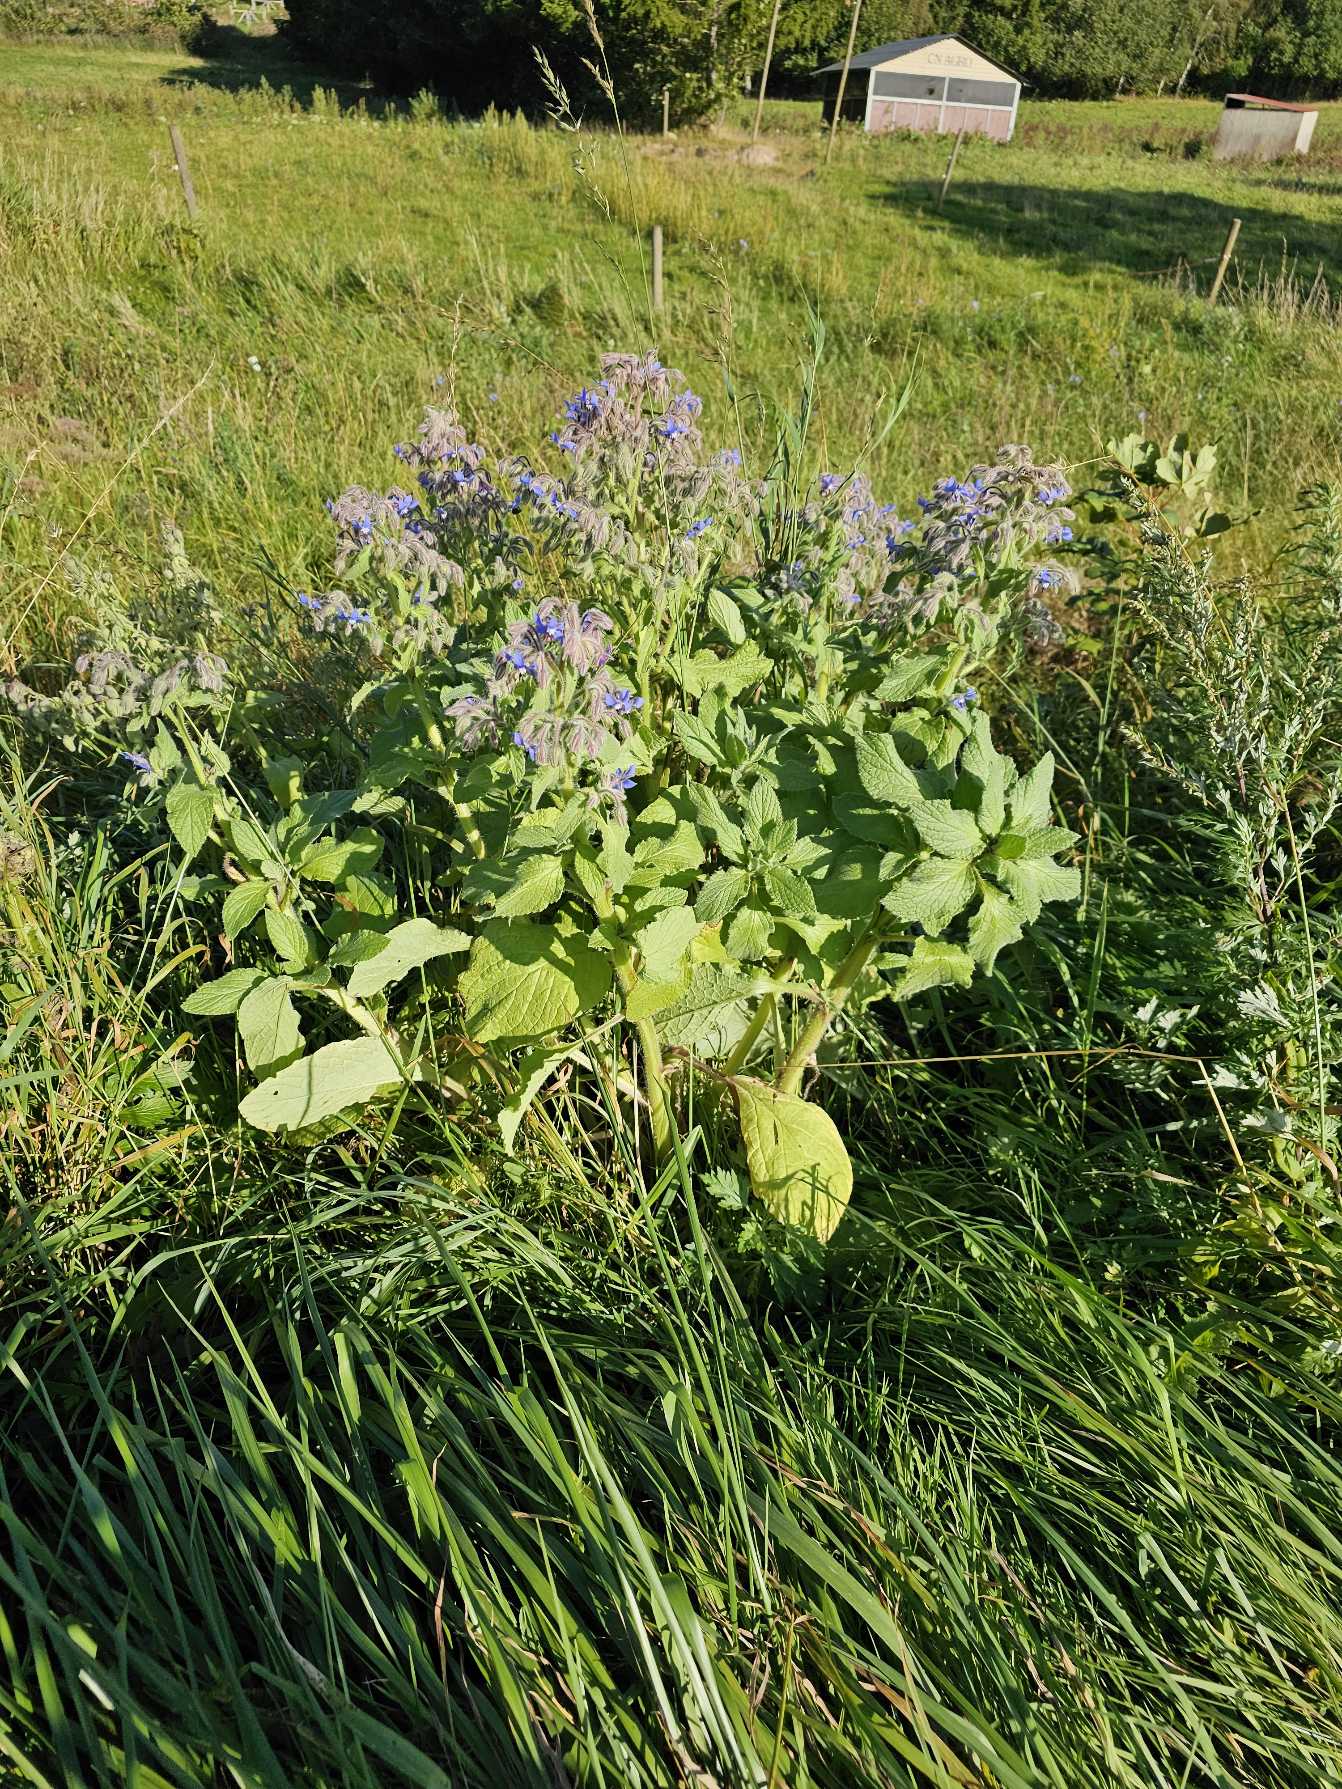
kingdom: Plantae
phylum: Tracheophyta
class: Magnoliopsida
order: Boraginales
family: Boraginaceae
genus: Borago
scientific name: Borago officinalis
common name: Hjulkrone
